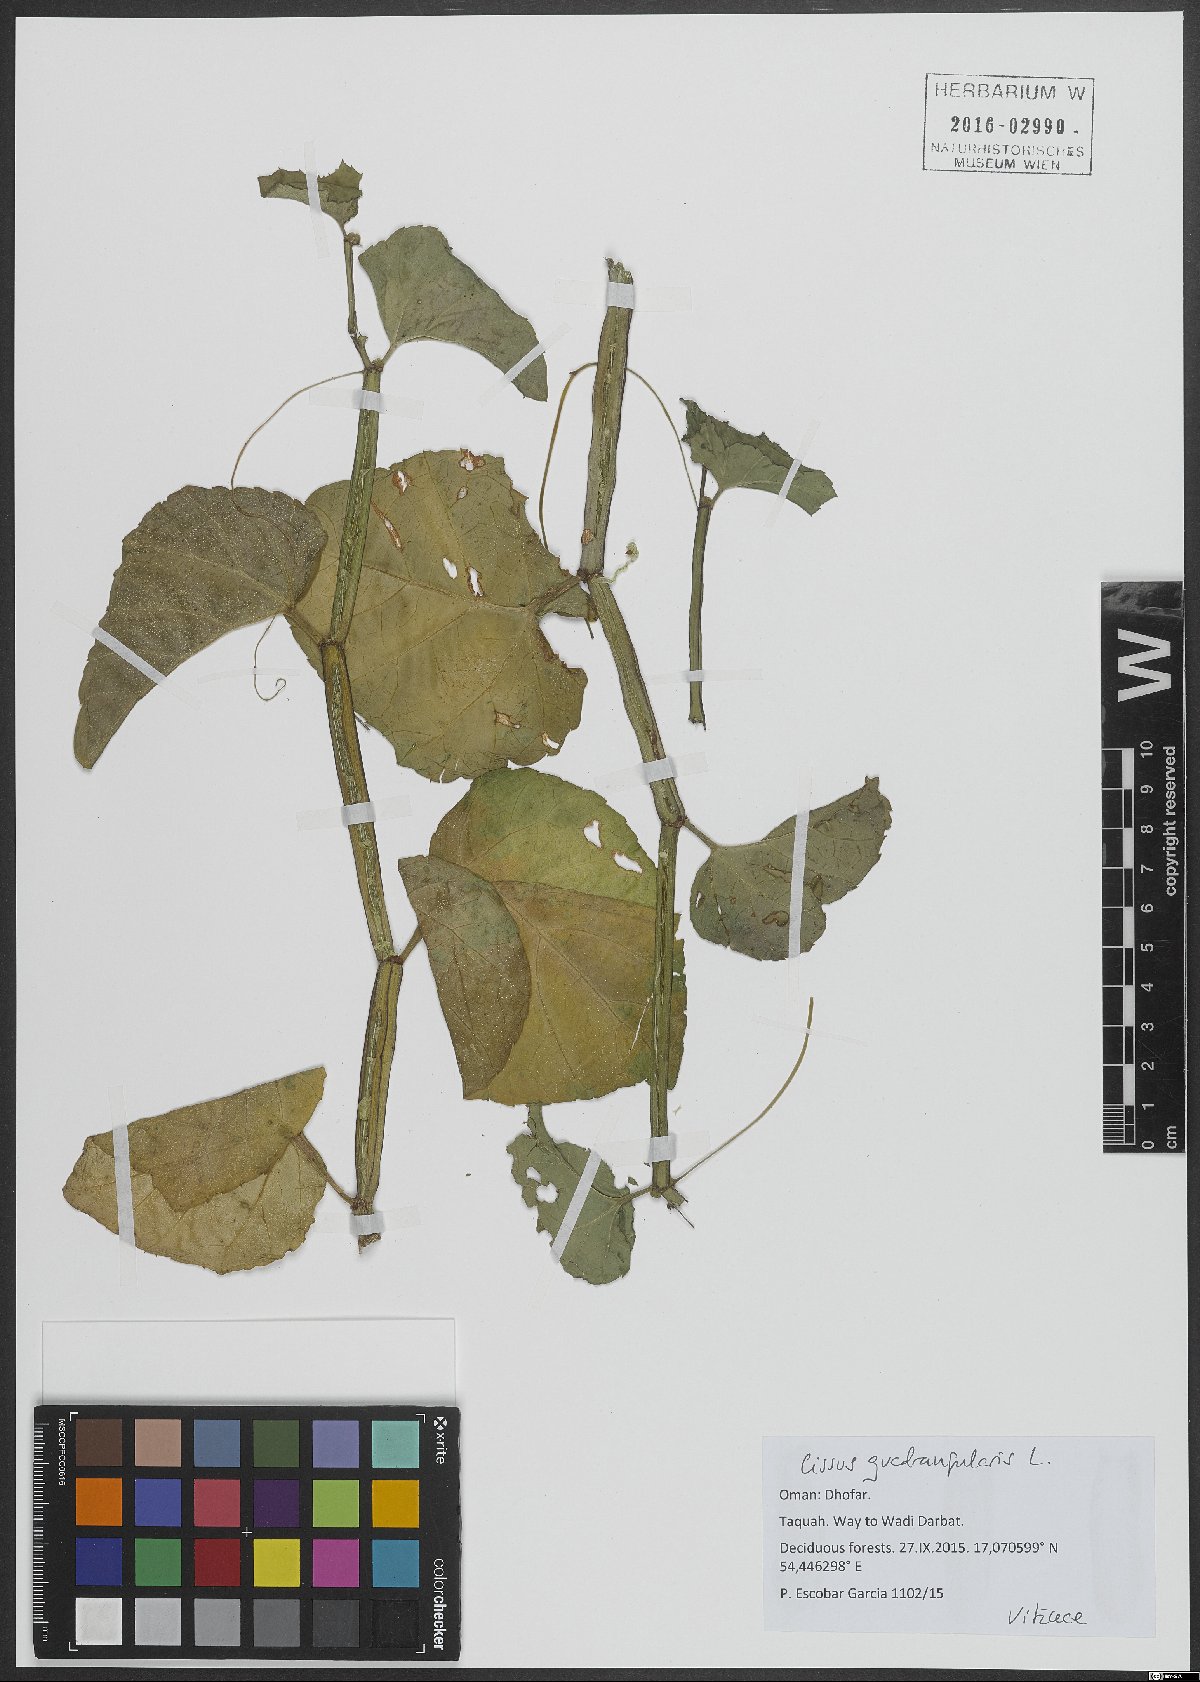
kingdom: Plantae
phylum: Tracheophyta
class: Magnoliopsida
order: Vitales
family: Vitaceae
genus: Cissus
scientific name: Cissus quadrangularis
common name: Veldt-grape
